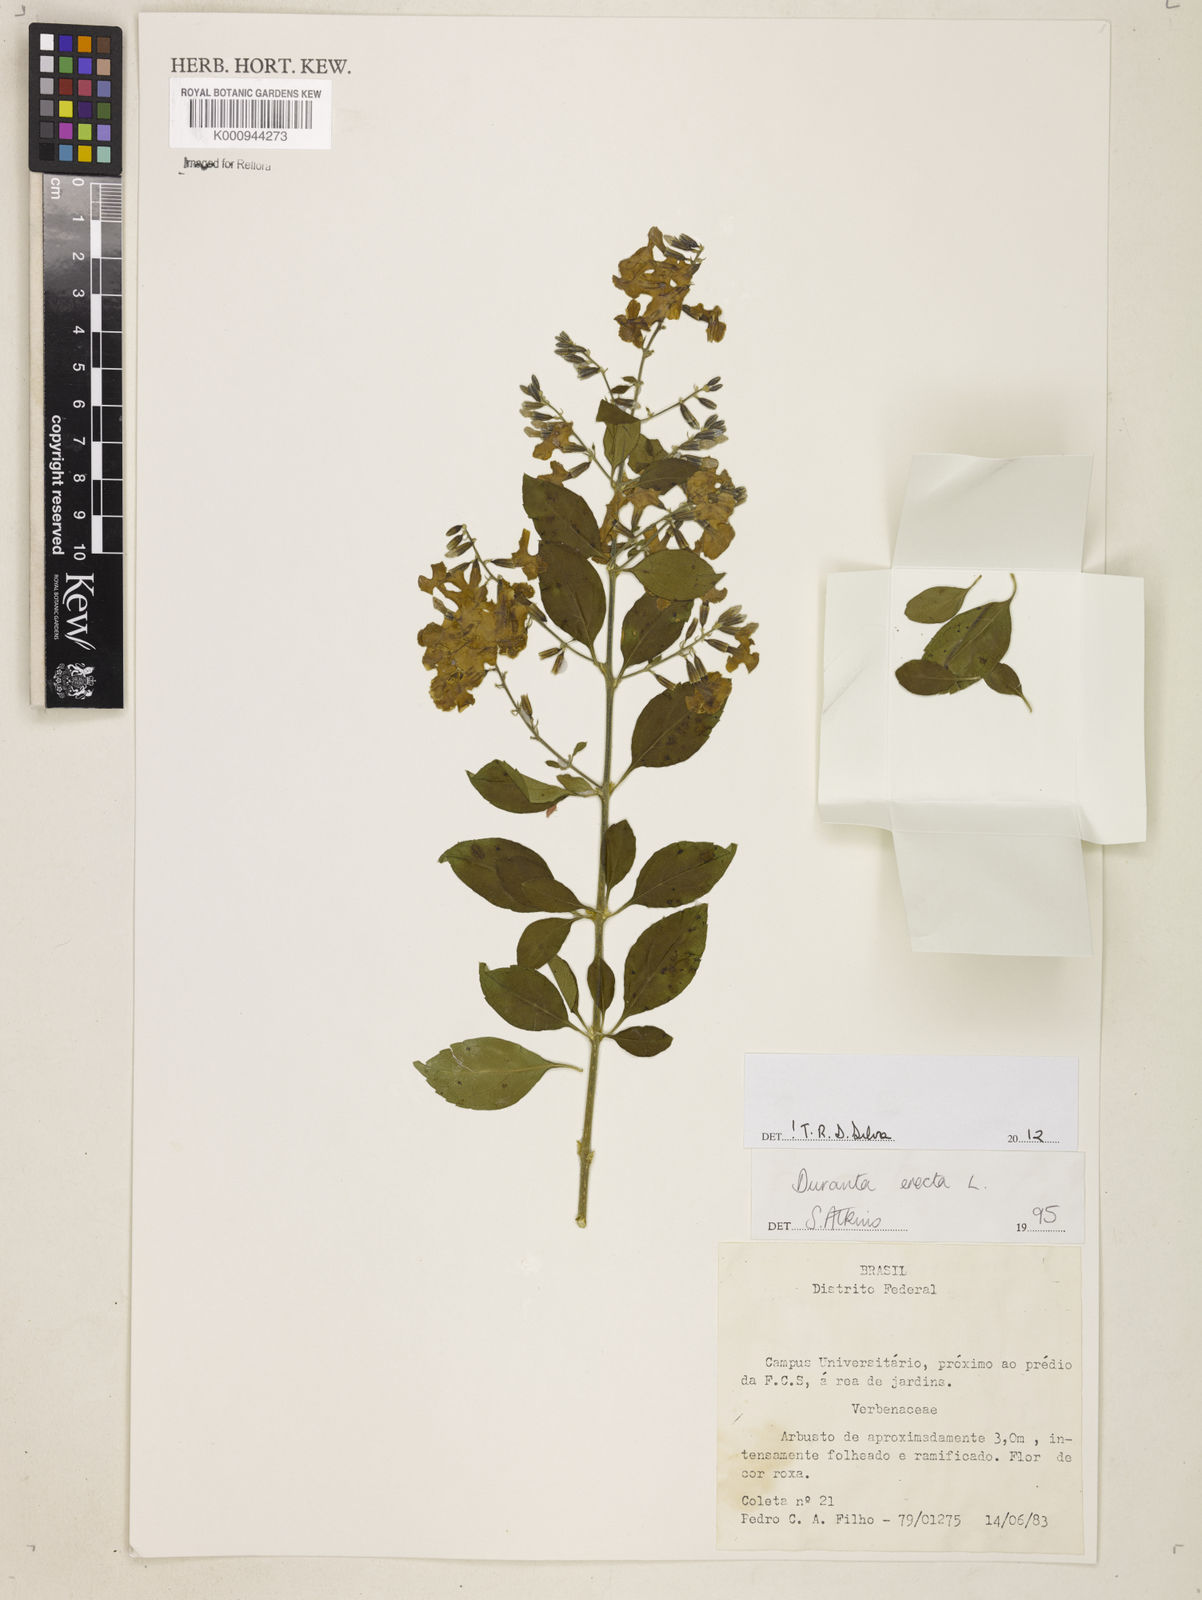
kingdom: Plantae
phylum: Tracheophyta
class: Magnoliopsida
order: Lamiales
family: Verbenaceae
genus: Citharexylum
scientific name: Citharexylum caudatum
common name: Fiddlewood
